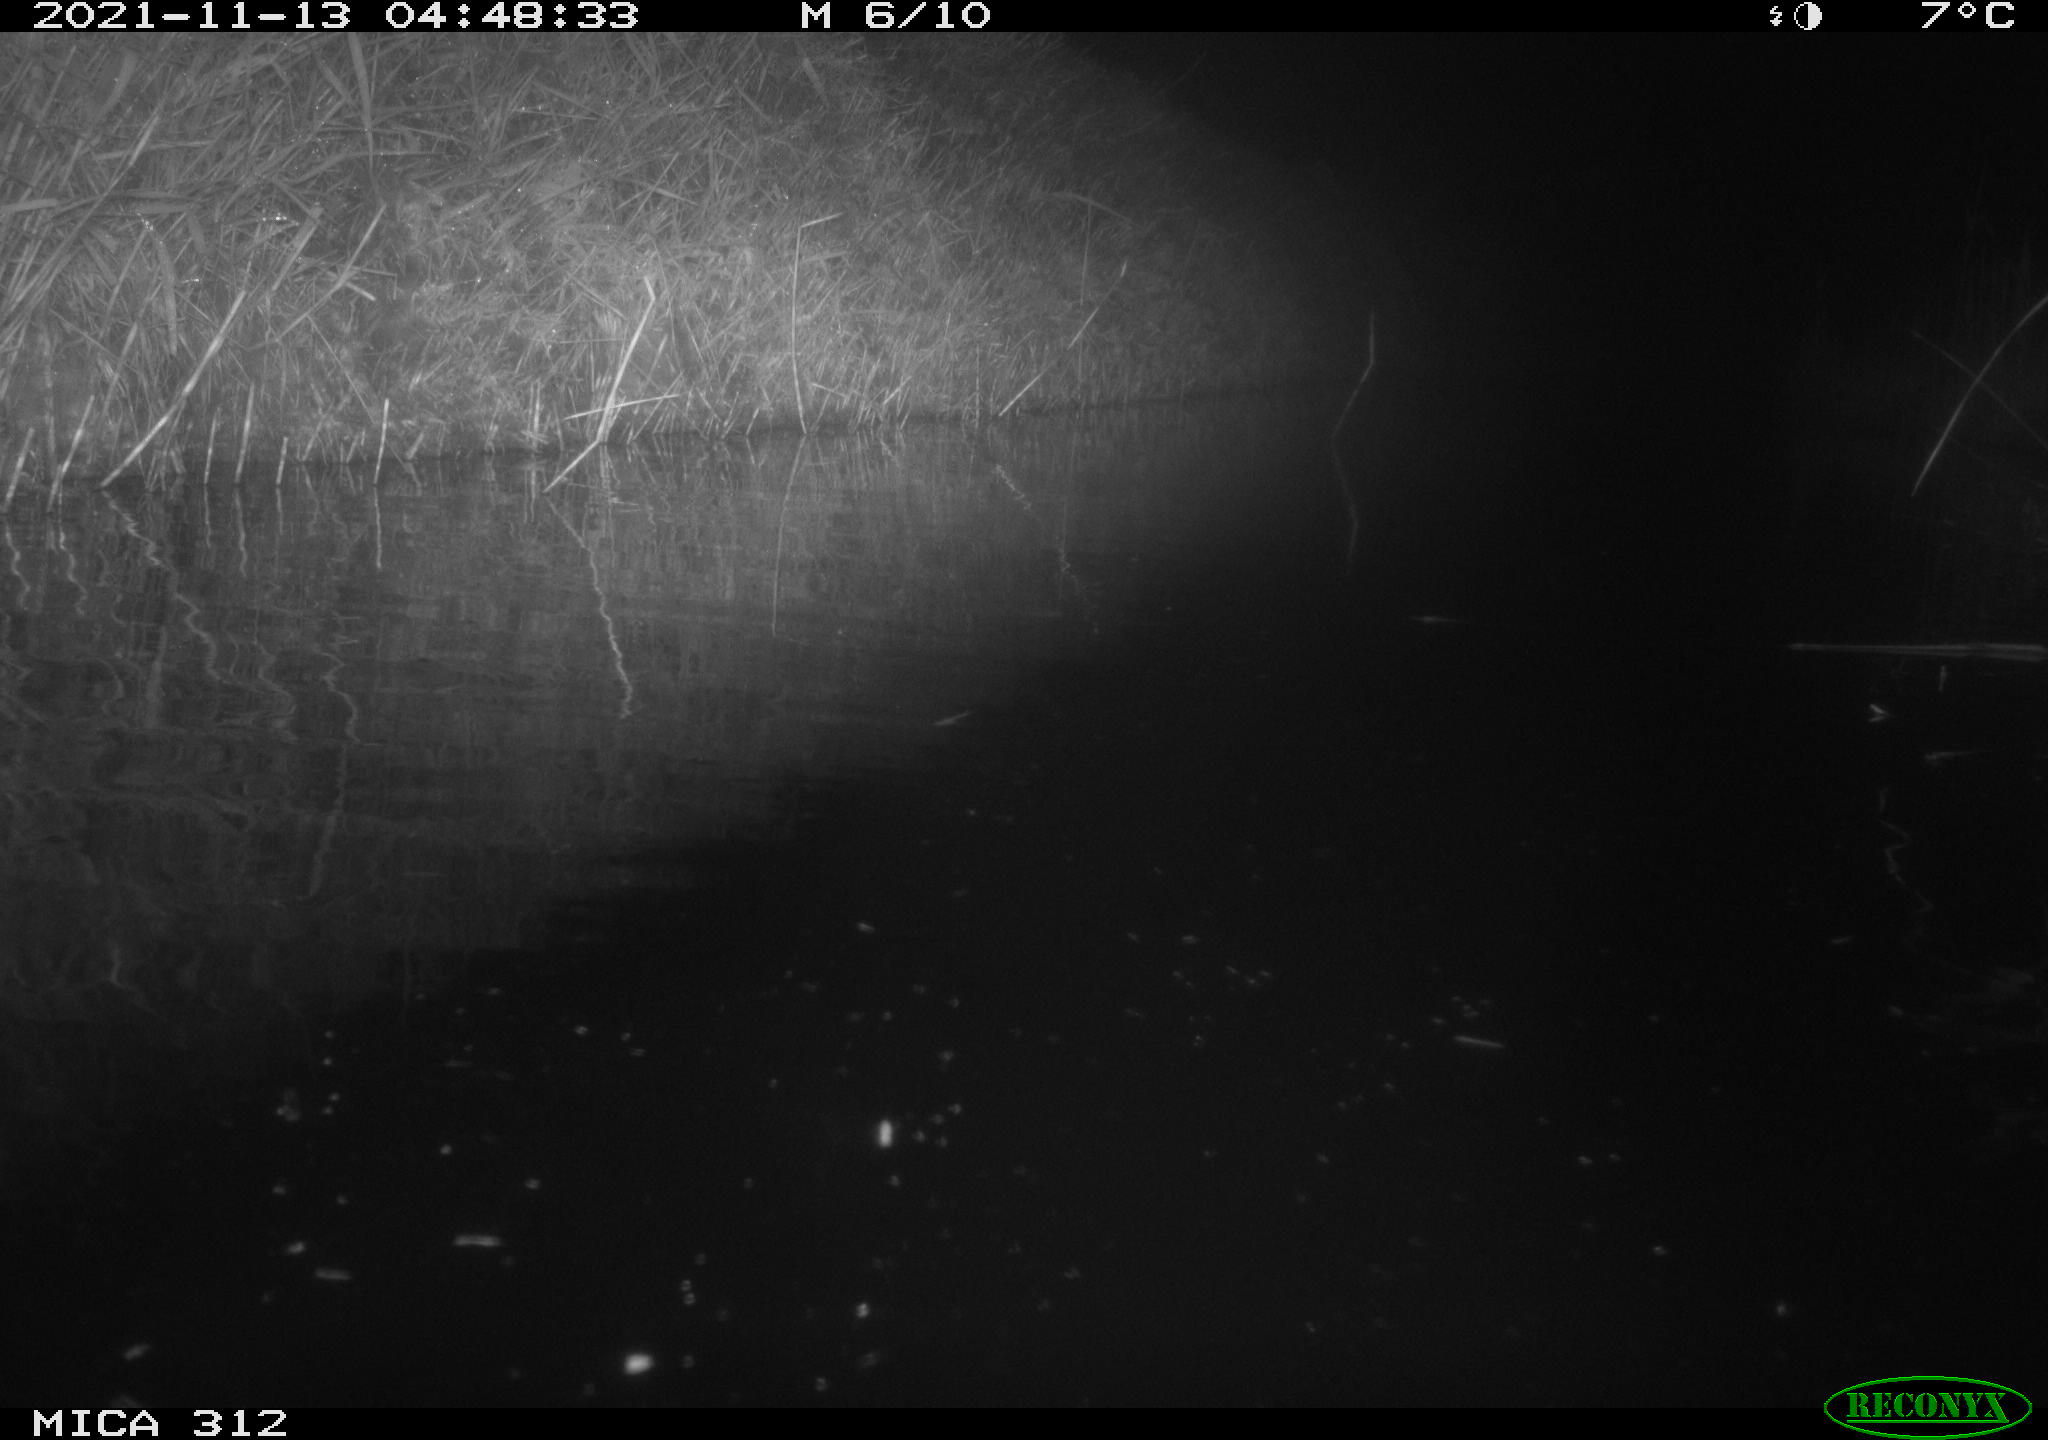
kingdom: Animalia
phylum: Chordata
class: Mammalia
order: Rodentia
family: Muridae
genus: Rattus
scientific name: Rattus norvegicus
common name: Brown rat
